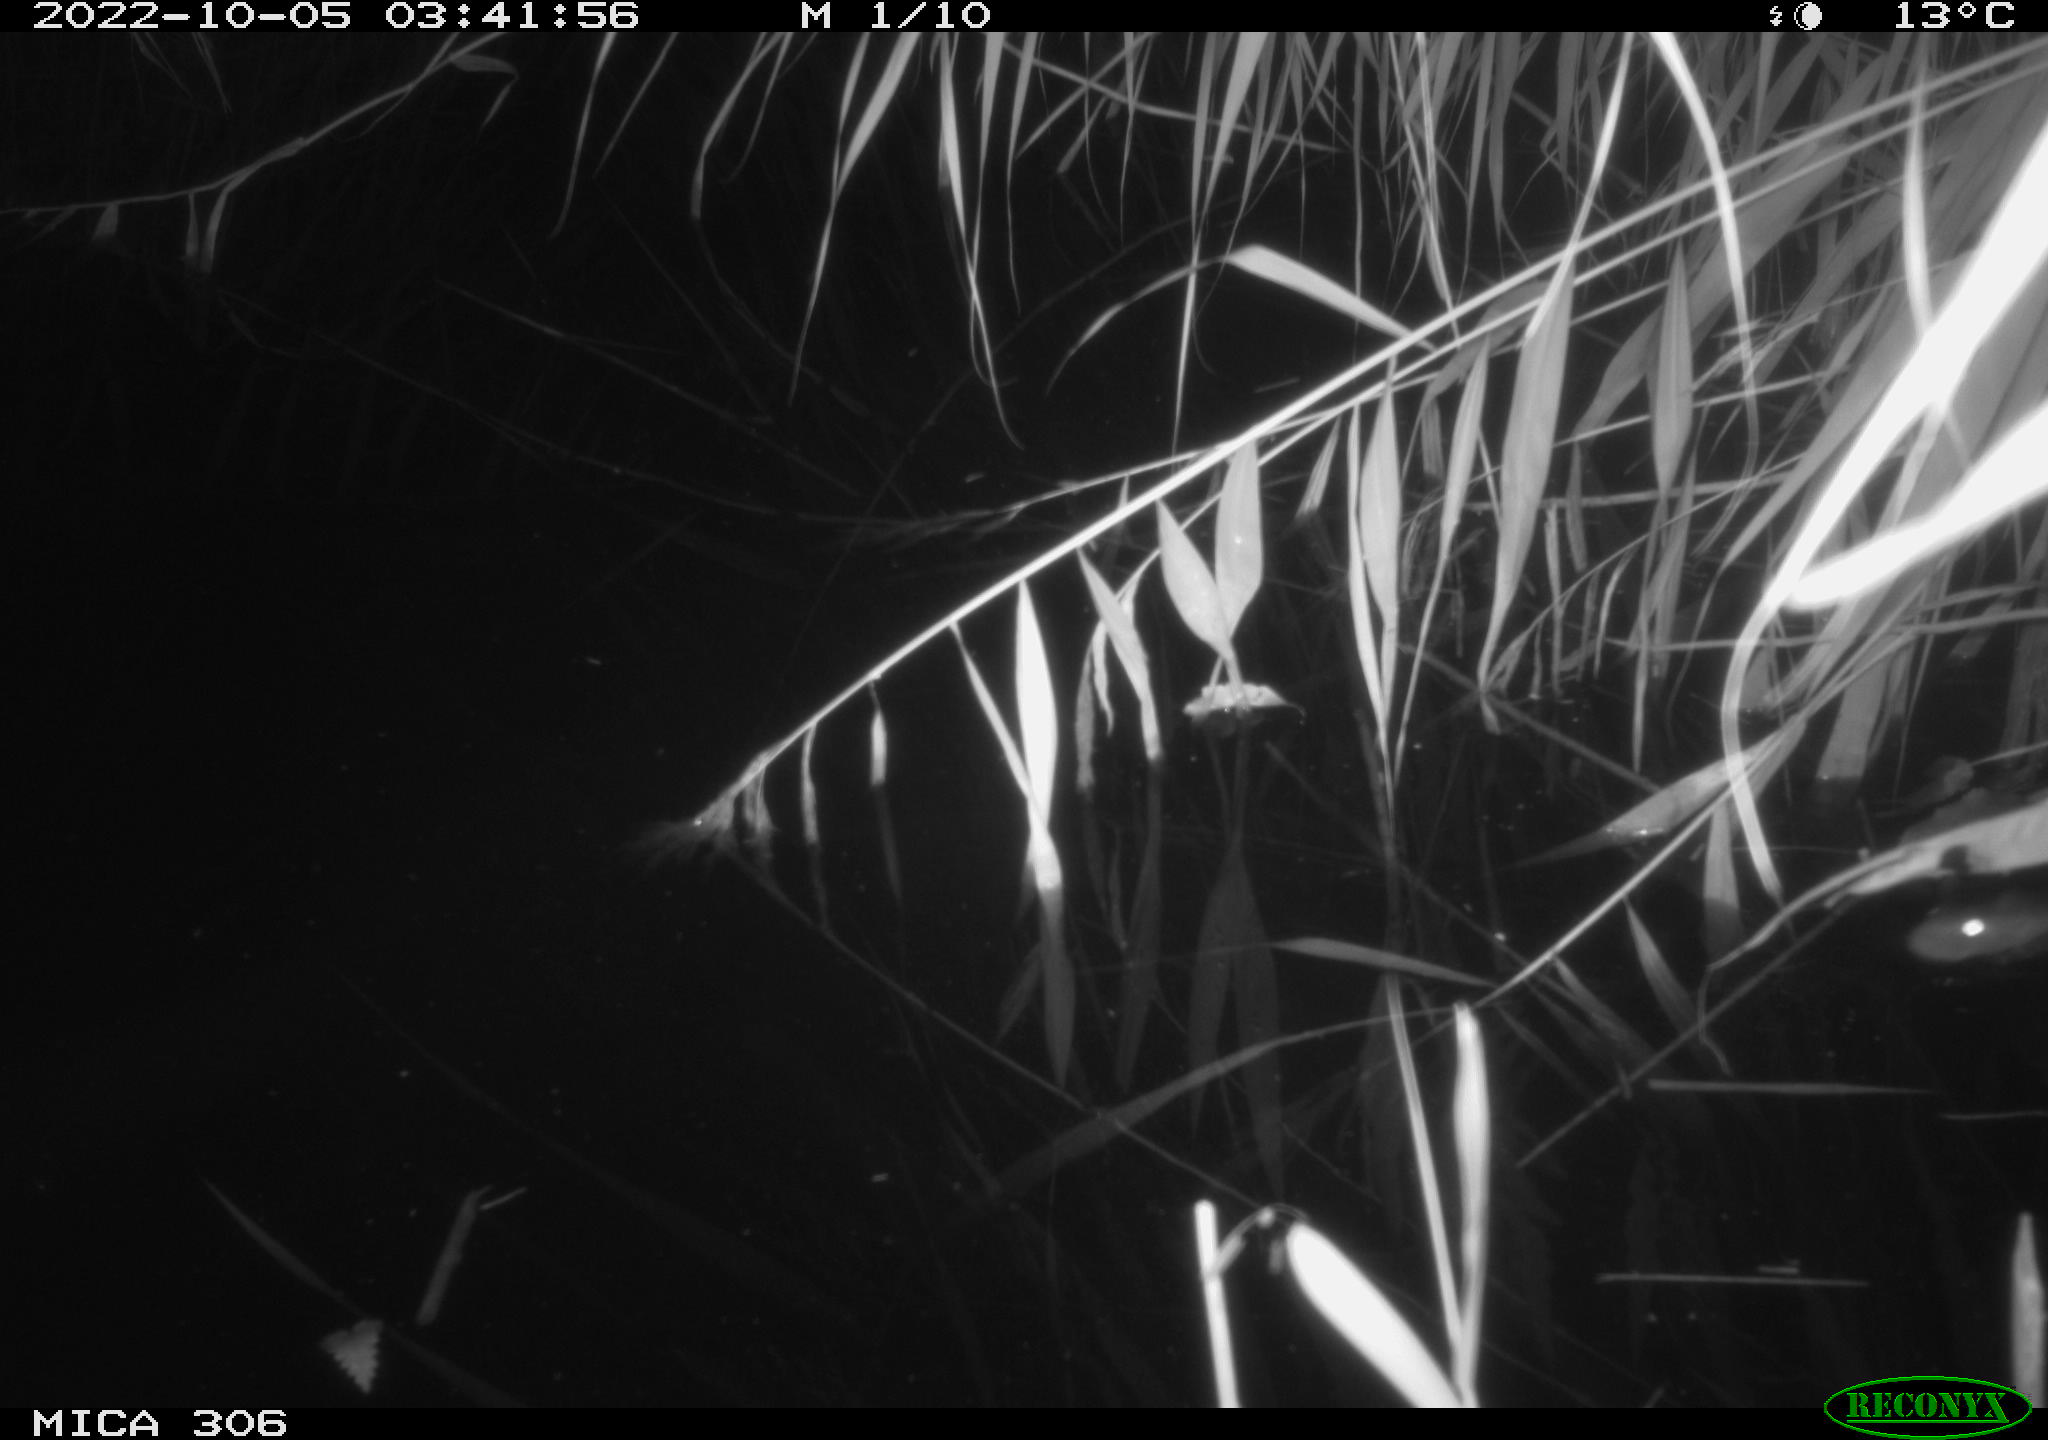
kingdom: Animalia
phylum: Chordata
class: Mammalia
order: Rodentia
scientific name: Rodentia
